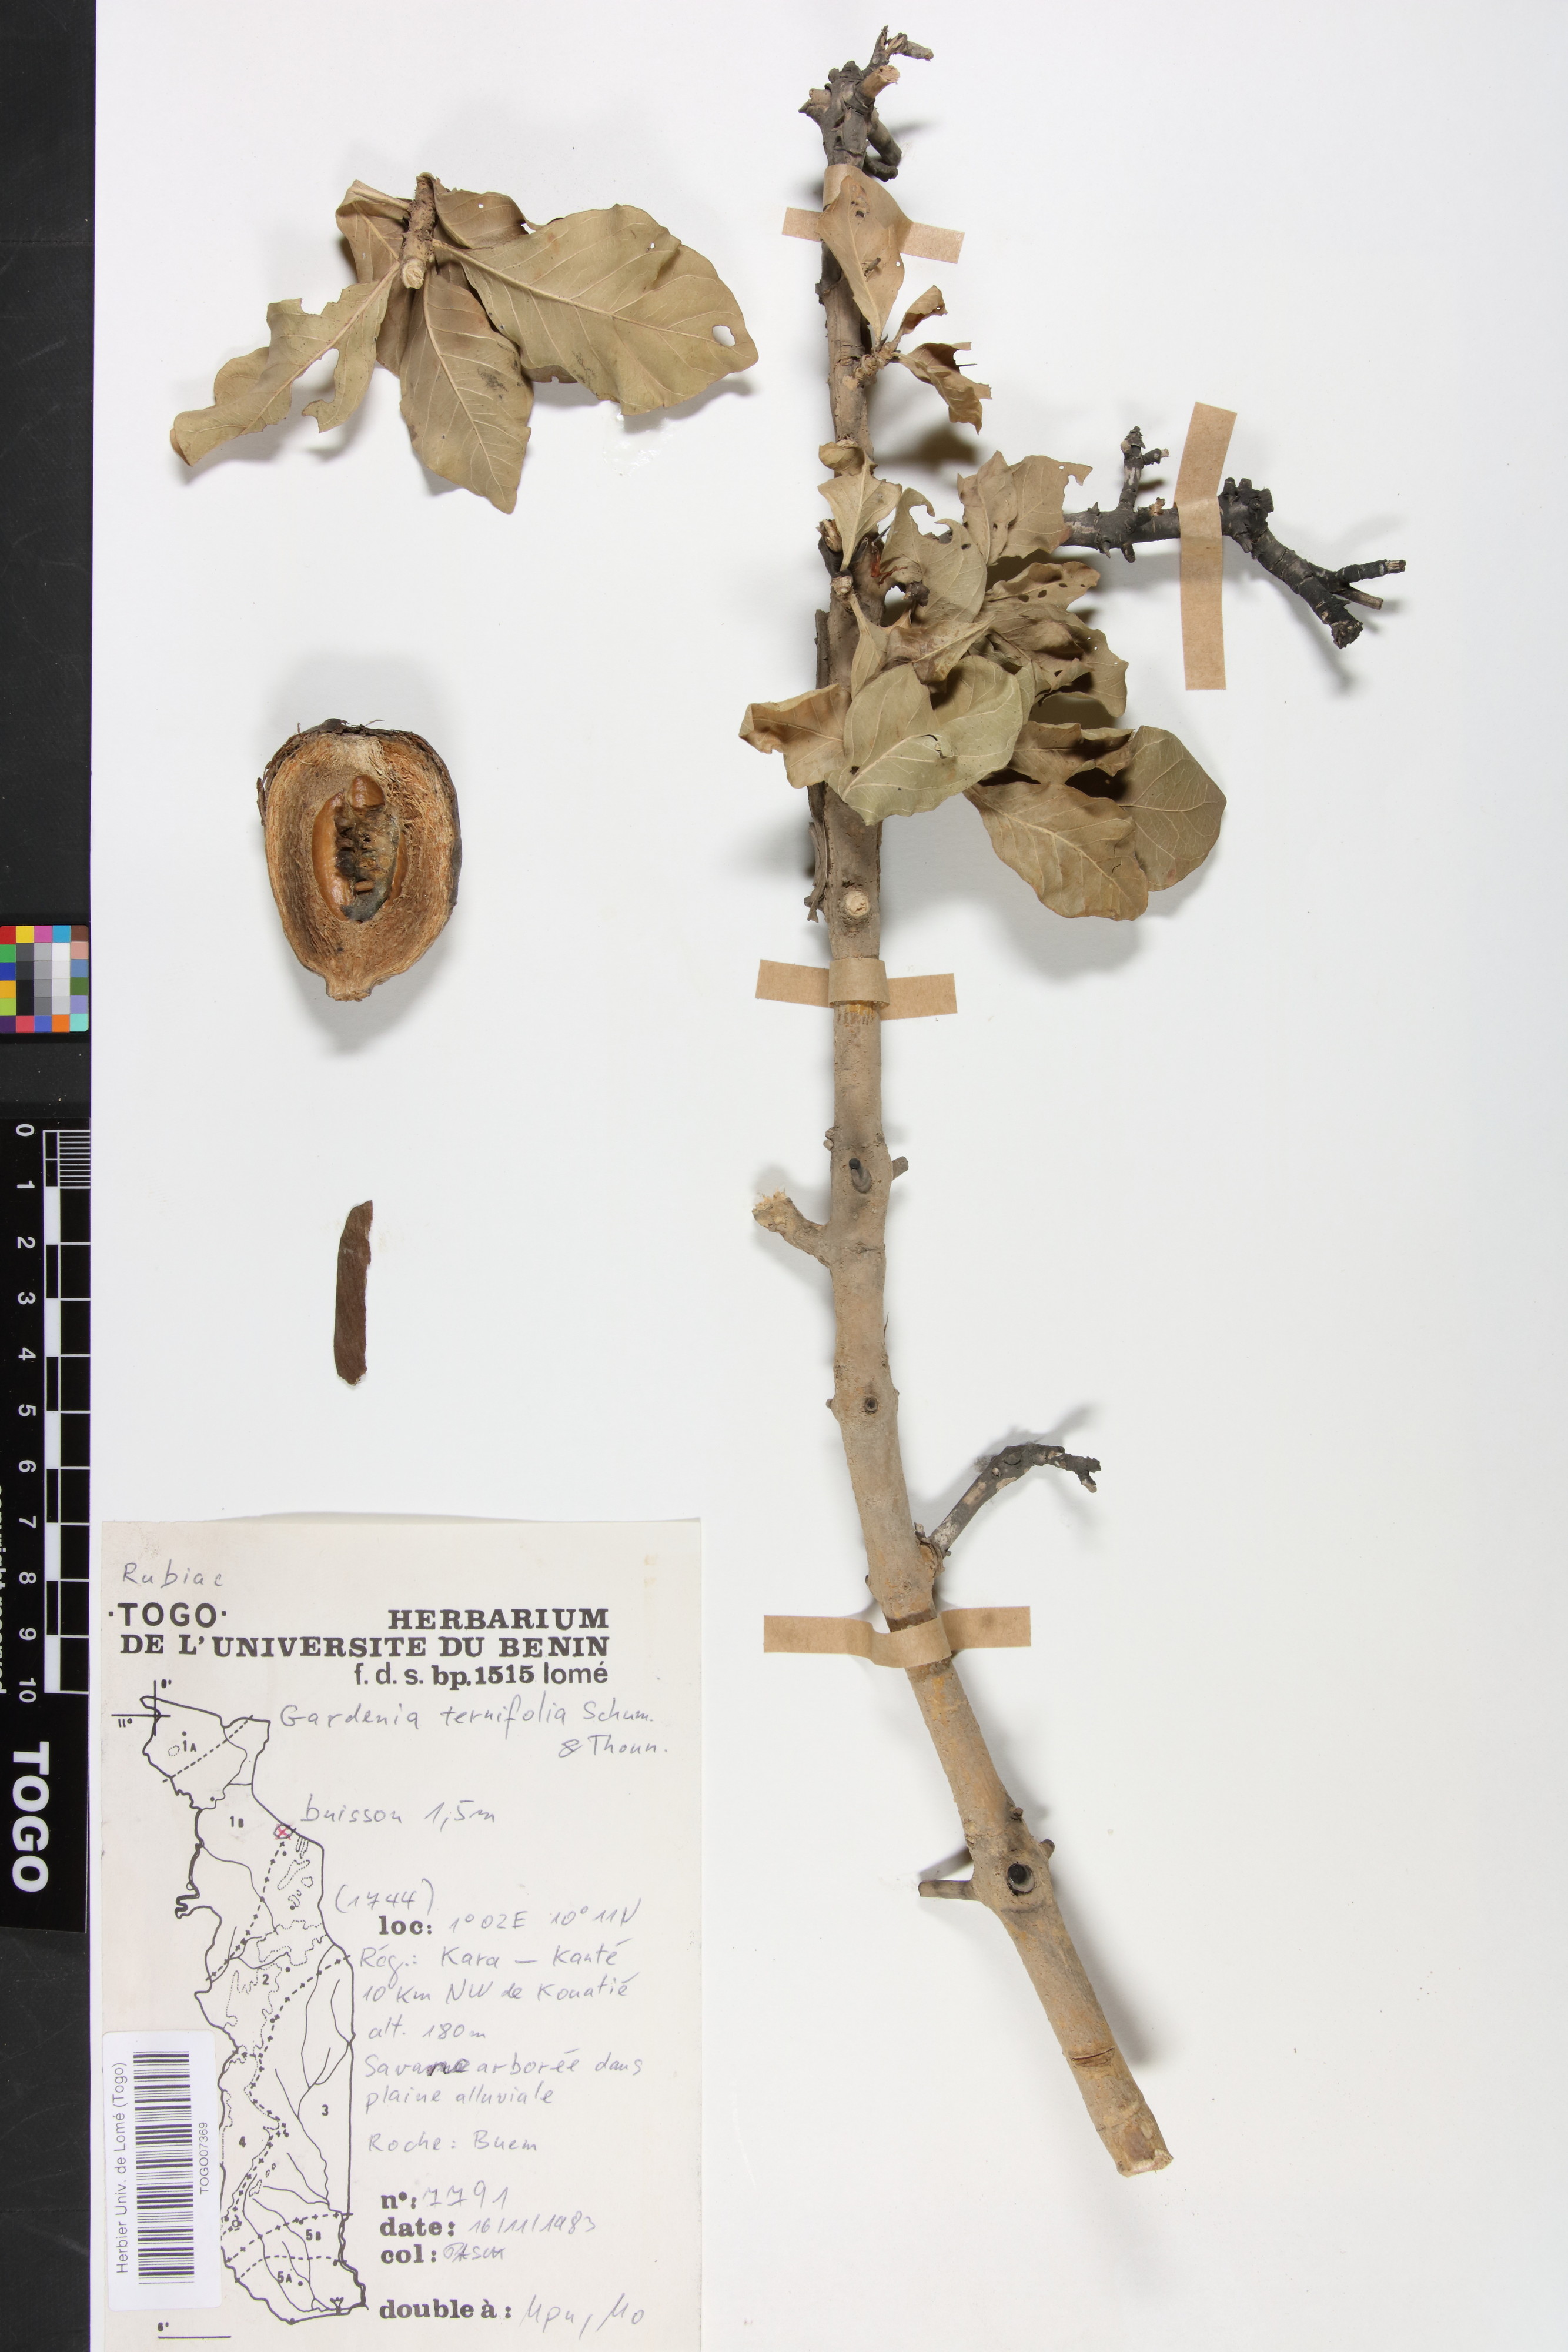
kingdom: Plantae
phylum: Tracheophyta
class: Magnoliopsida
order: Gentianales
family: Rubiaceae
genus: Gardenia
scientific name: Gardenia ternifolia
